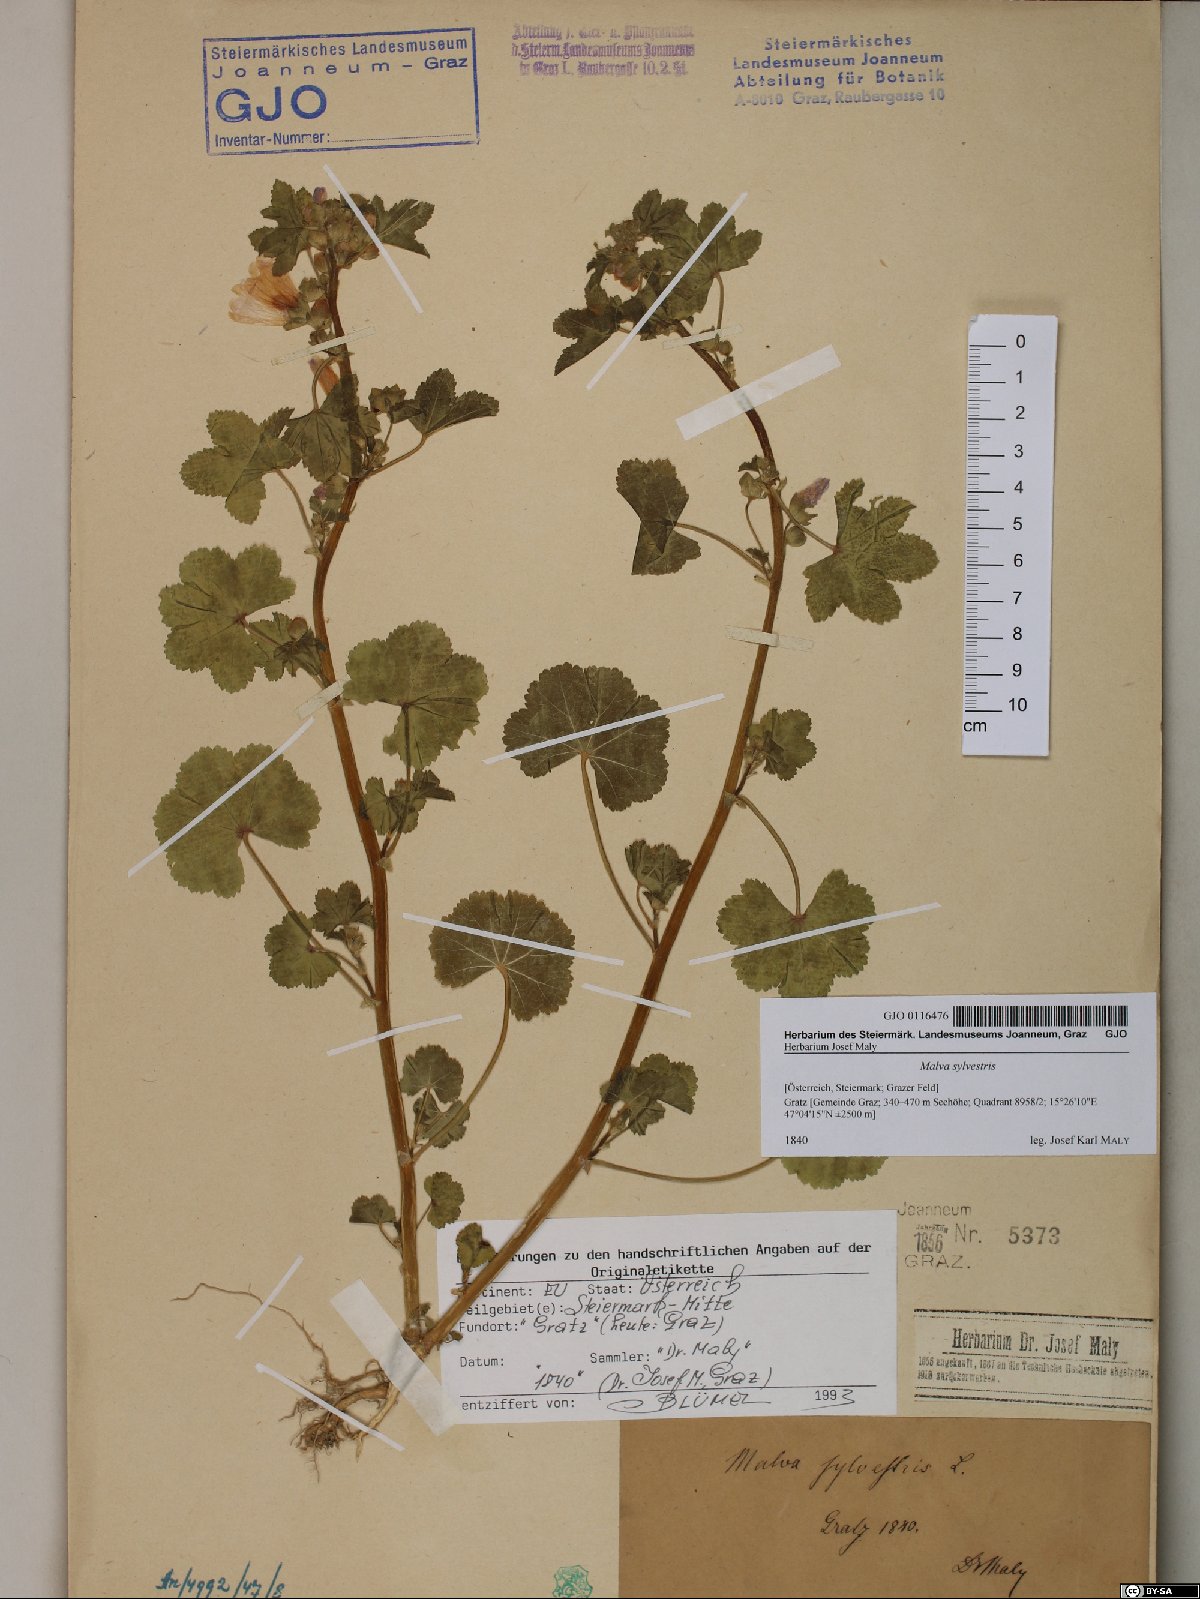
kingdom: Plantae
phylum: Tracheophyta
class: Magnoliopsida
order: Malvales
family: Malvaceae
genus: Malva
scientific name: Malva sylvestris
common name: Common mallow
